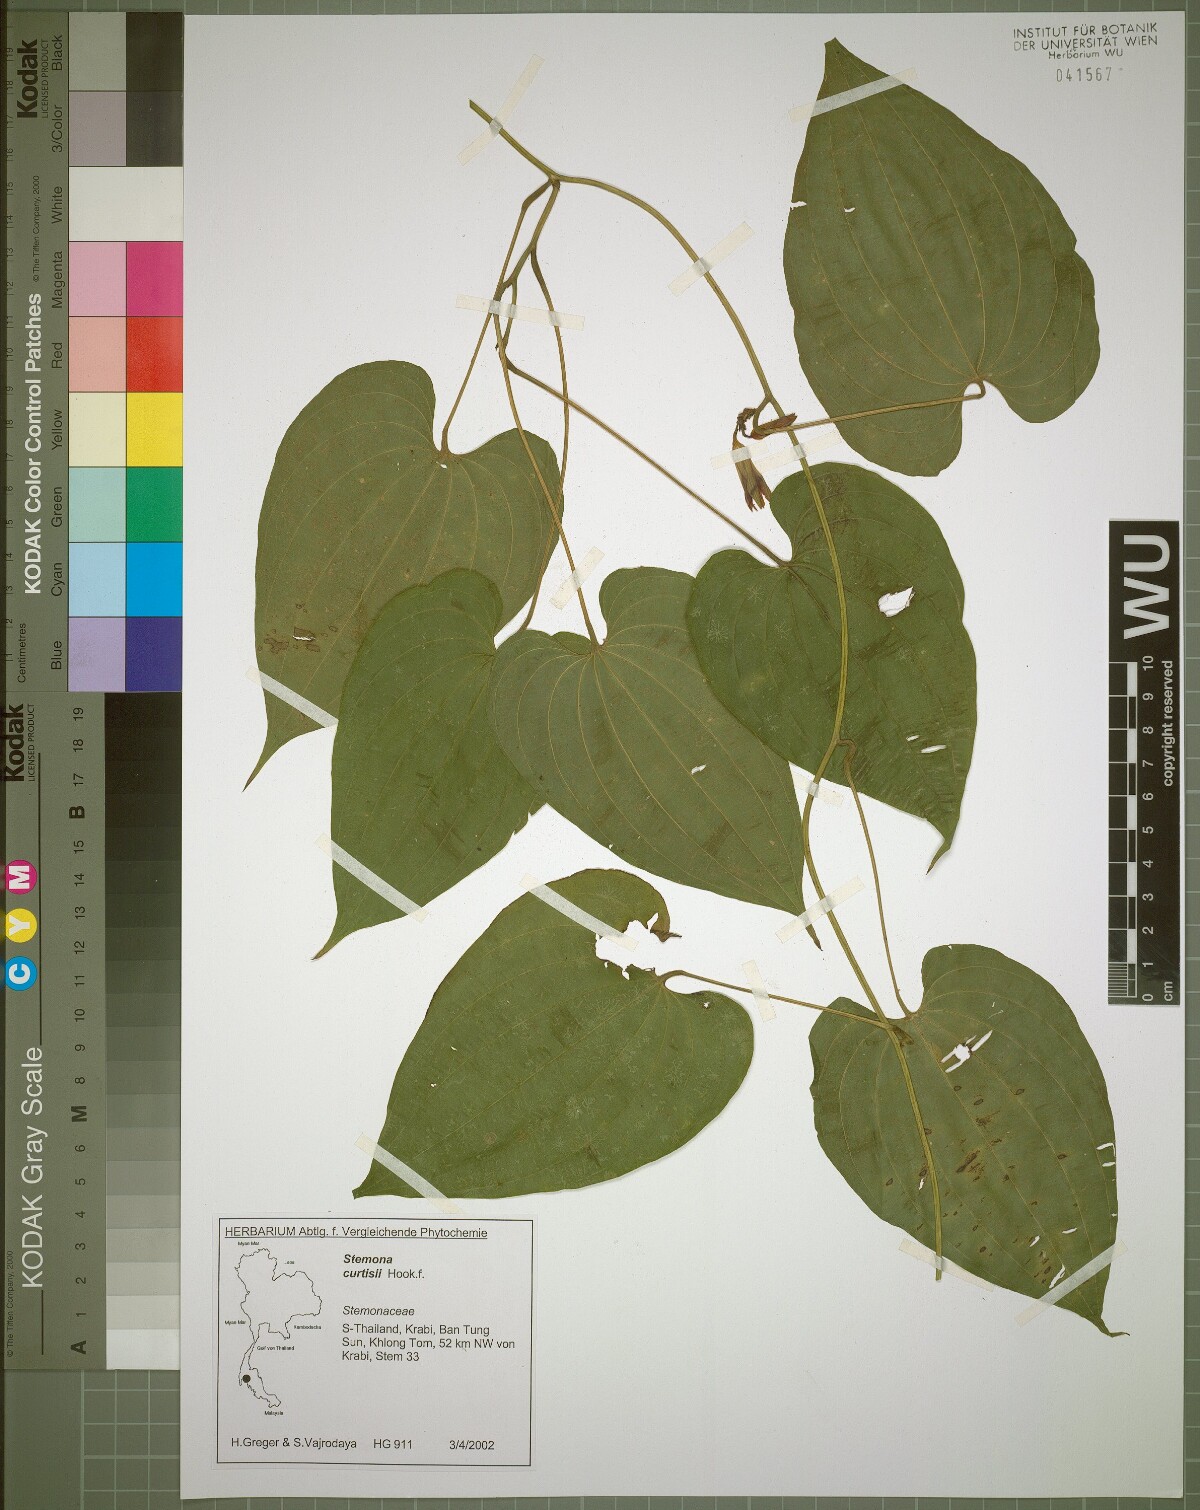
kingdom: Plantae
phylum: Tracheophyta
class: Liliopsida
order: Pandanales
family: Stemonaceae
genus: Stemona
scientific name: Stemona curtisii
